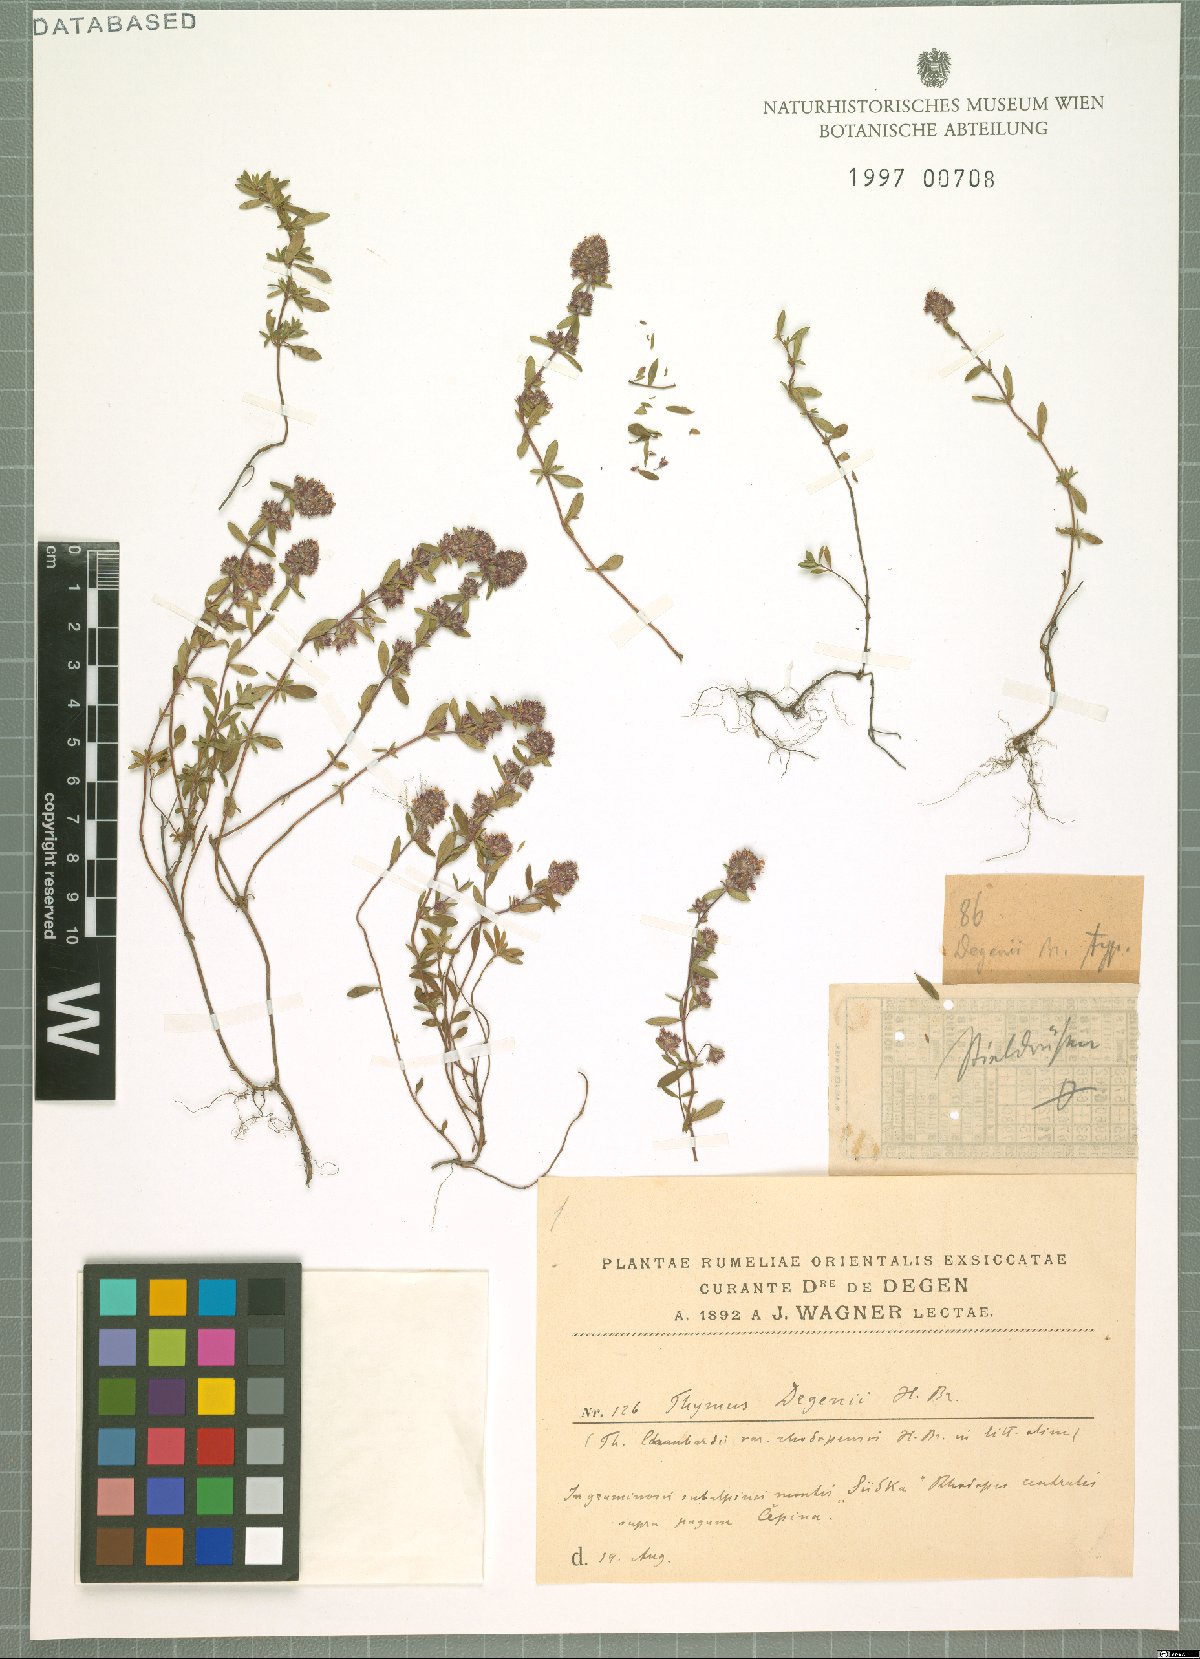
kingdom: Plantae
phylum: Tracheophyta
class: Magnoliopsida
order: Lamiales
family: Lamiaceae
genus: Thymus
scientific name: Thymus degenii
